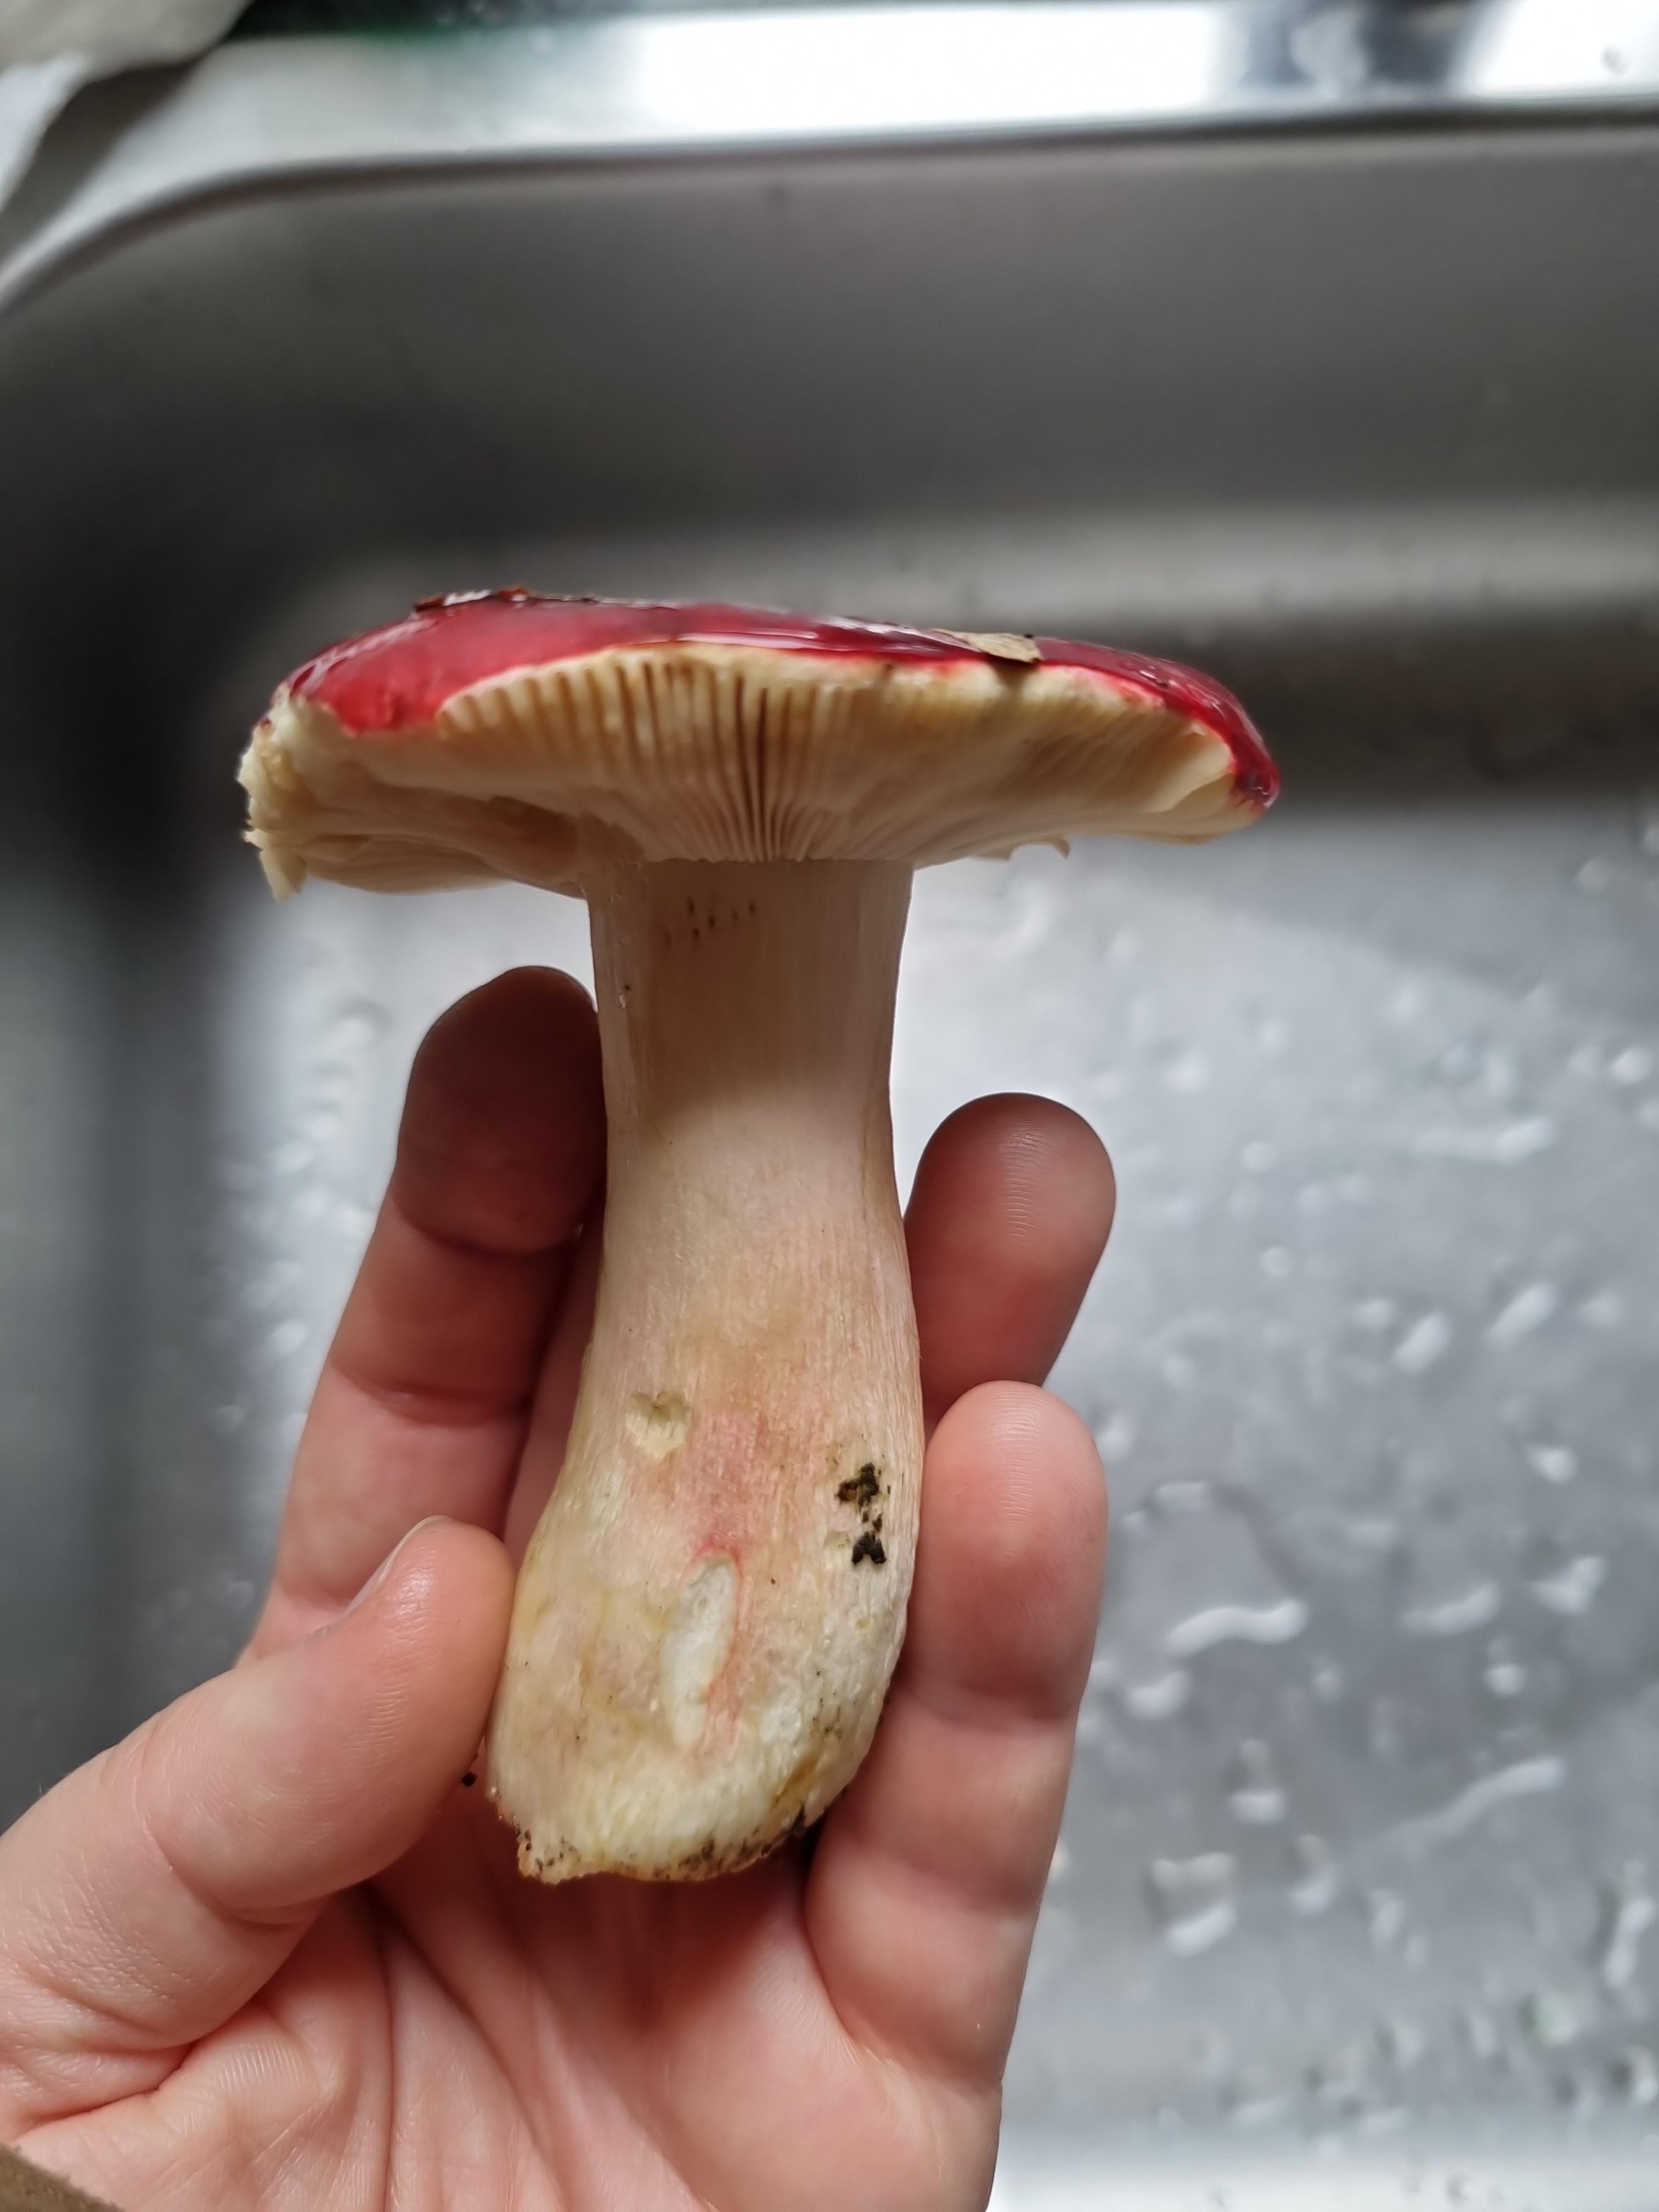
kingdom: Fungi
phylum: Basidiomycota
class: Agaricomycetes
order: Russulales
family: Russulaceae
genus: Russula
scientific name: Russula xerampelina
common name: hummer-skørhat
